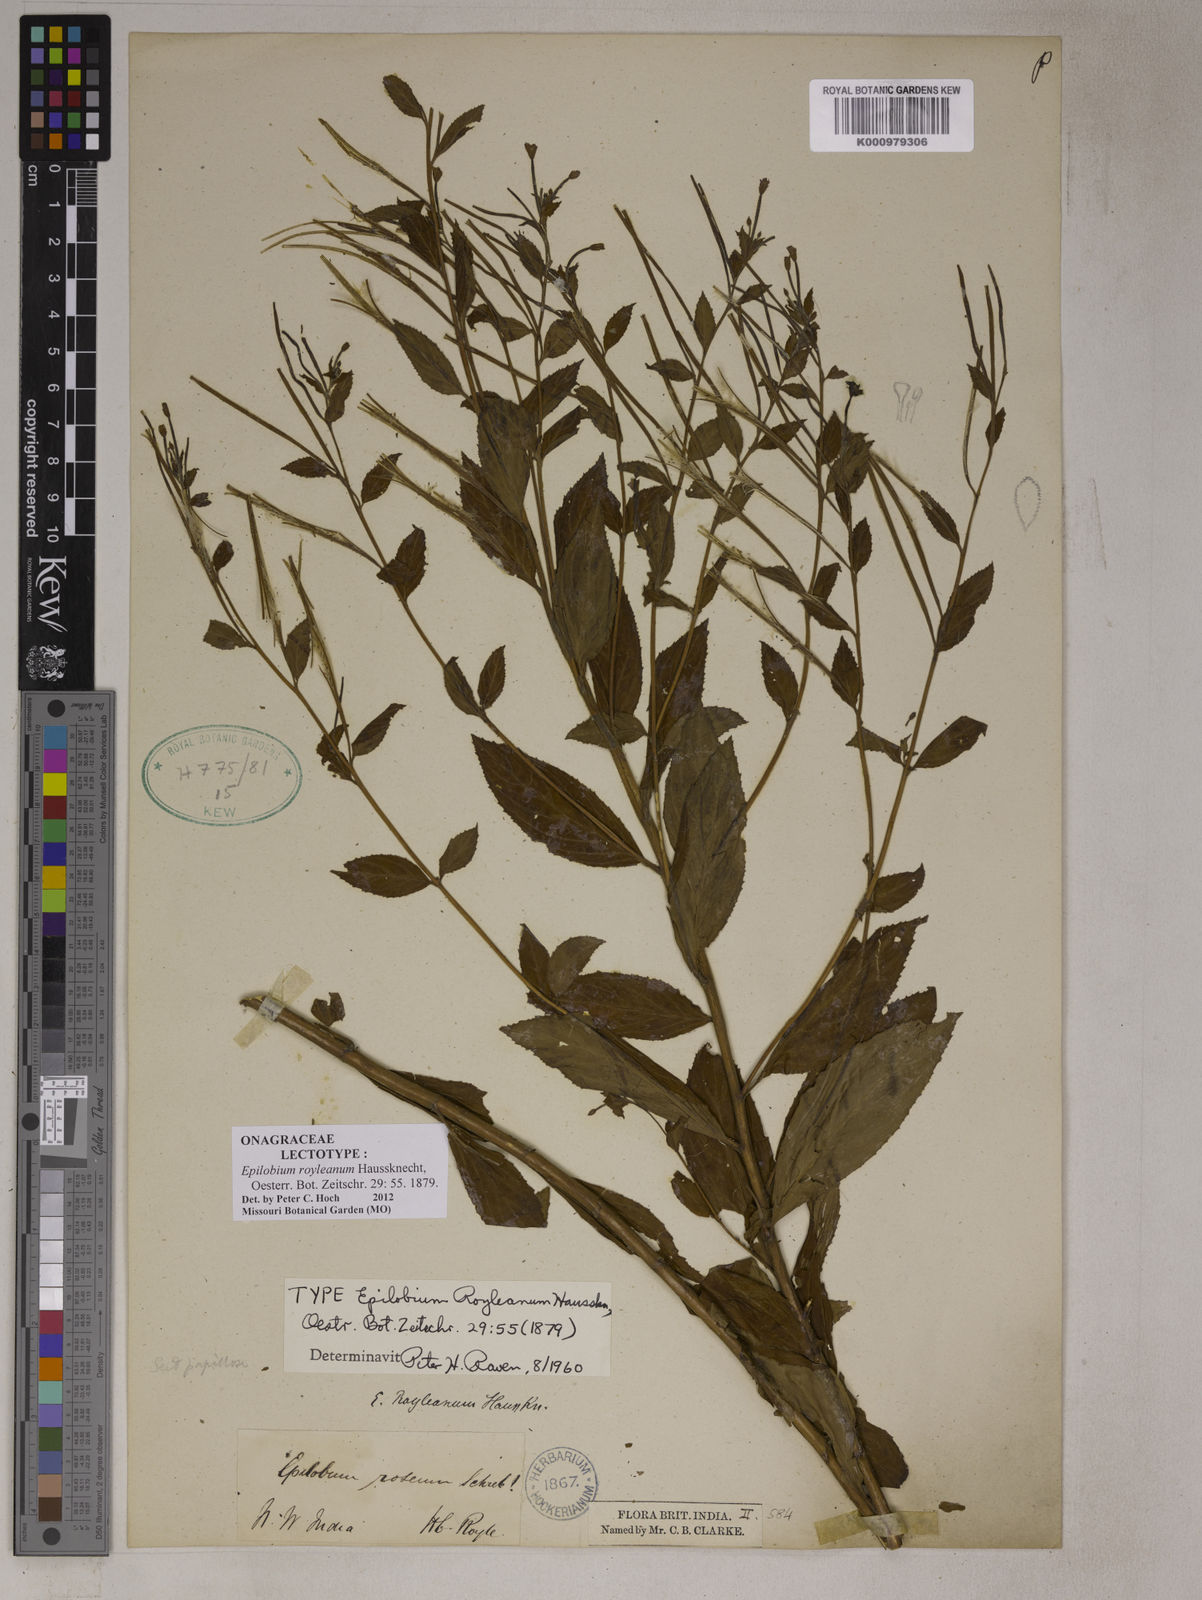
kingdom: Plantae
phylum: Tracheophyta
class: Magnoliopsida
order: Myrtales
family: Onagraceae
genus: Epilobium
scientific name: Epilobium royleanum
